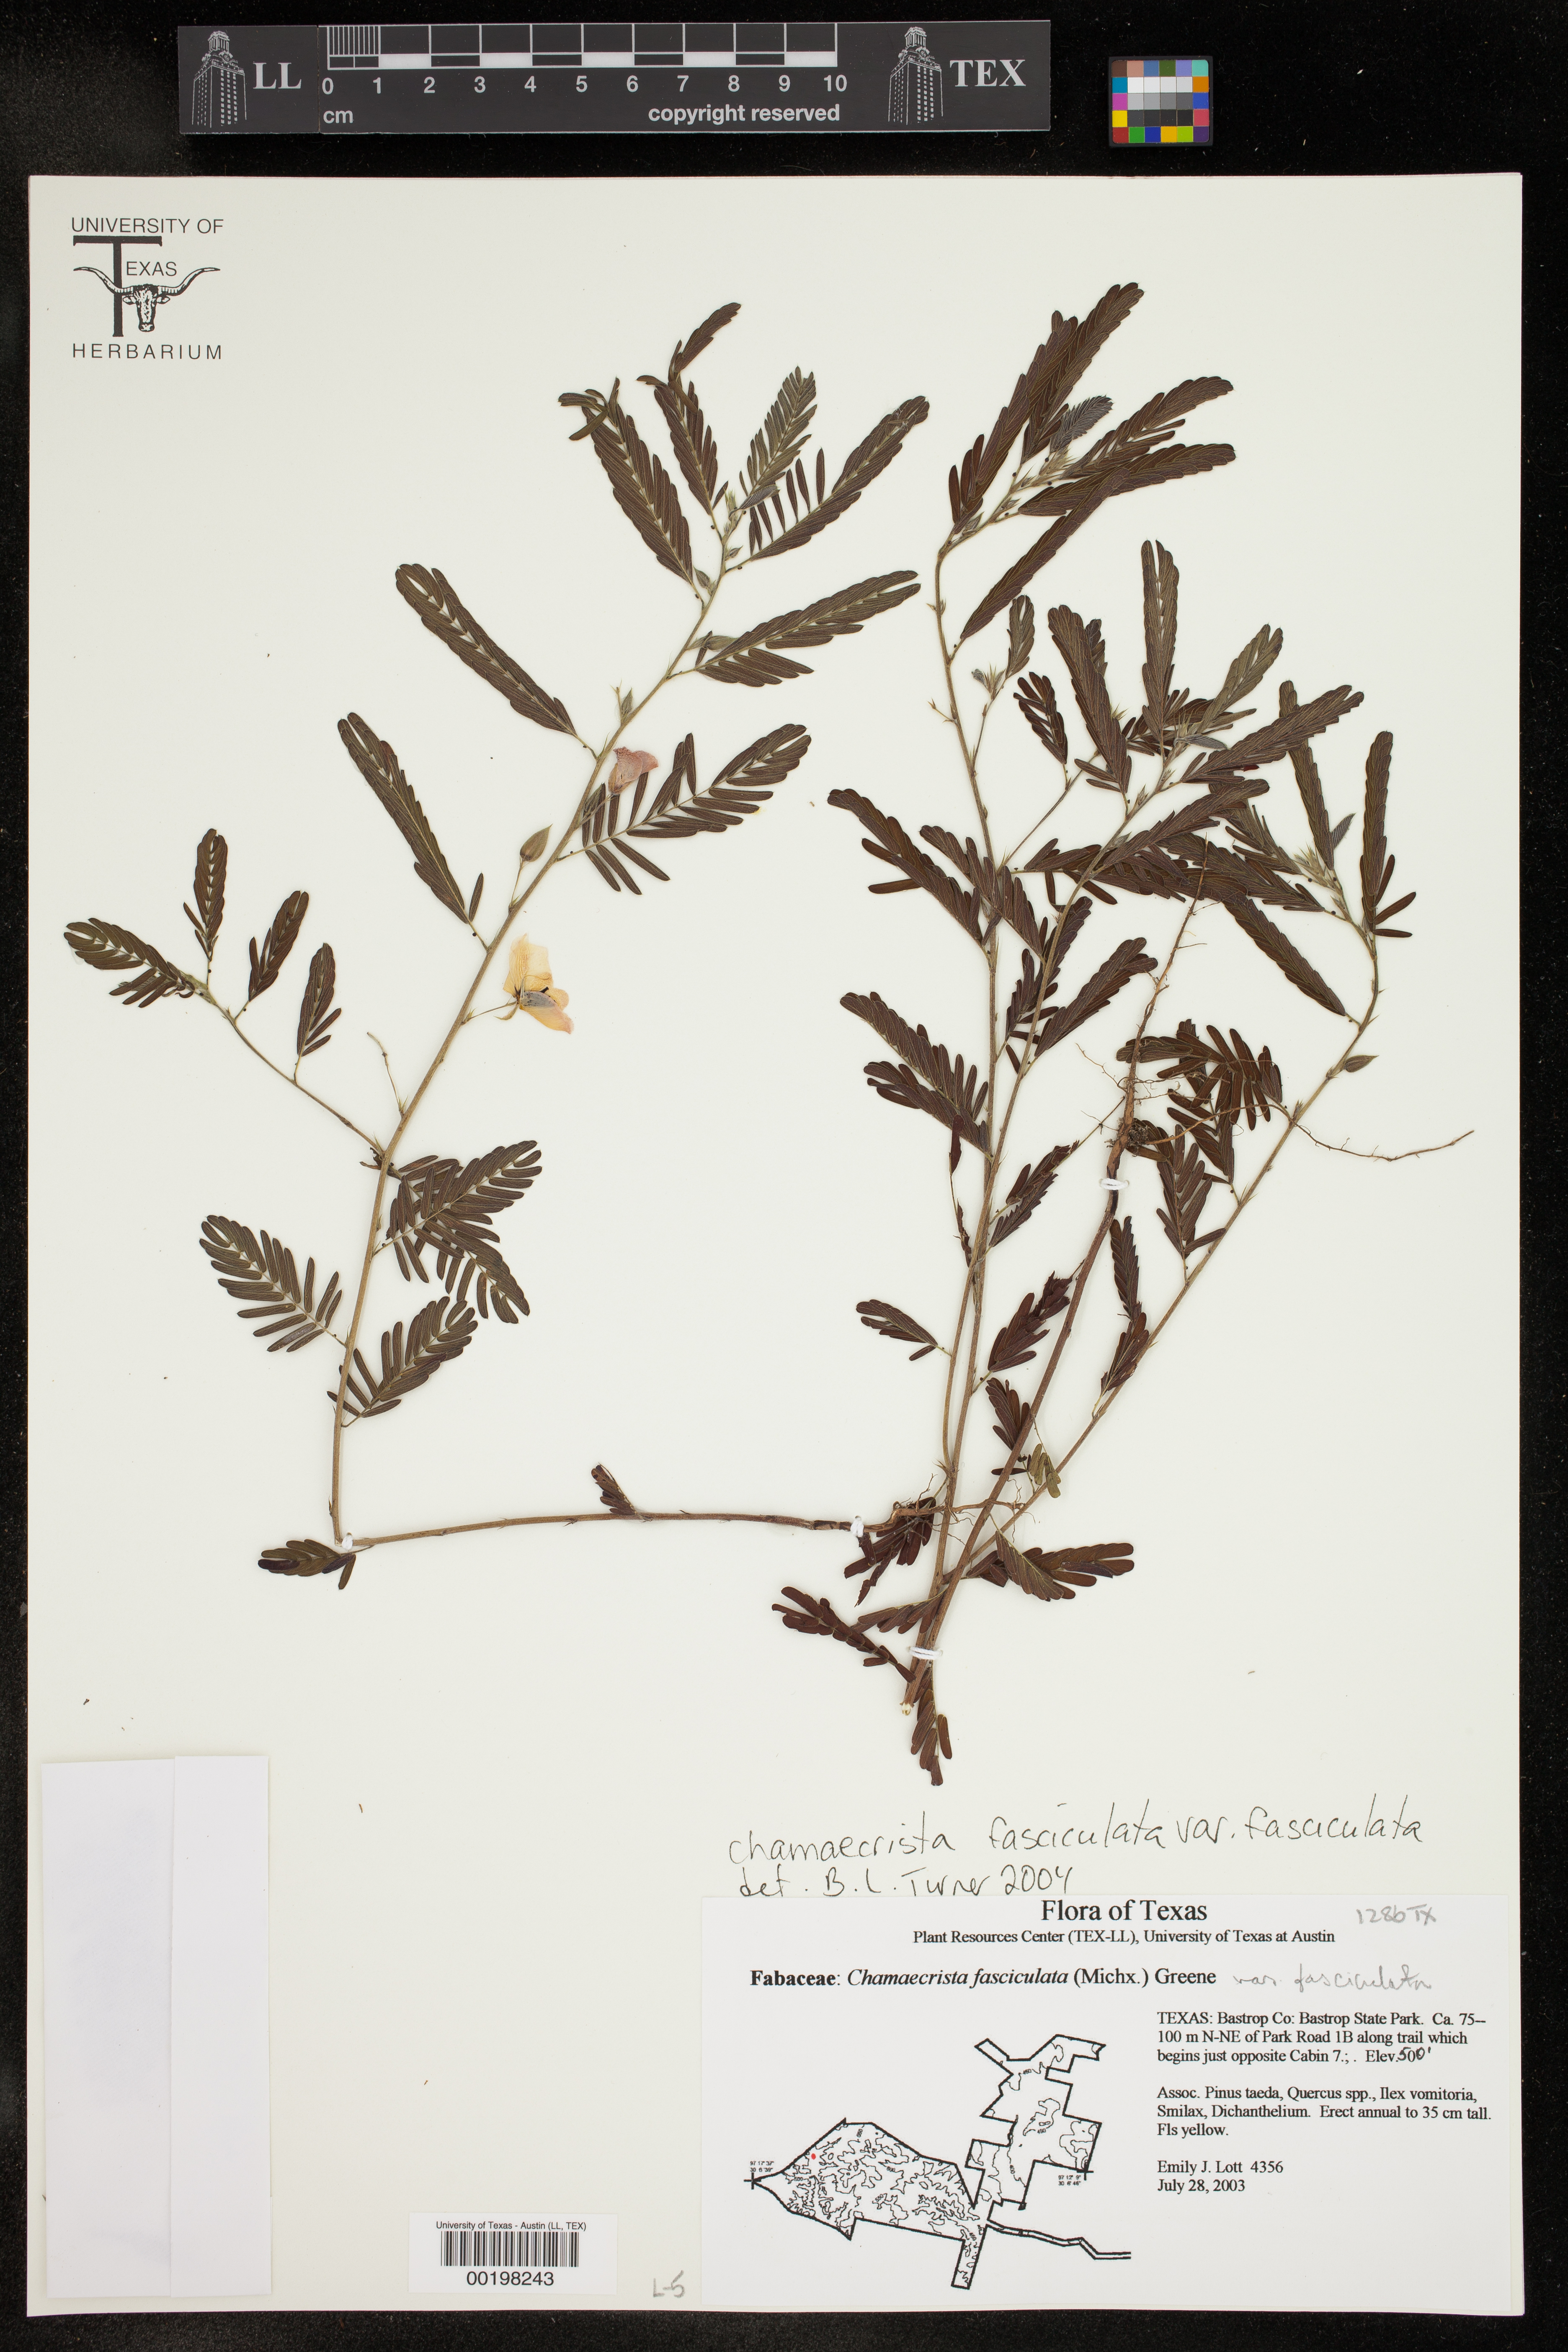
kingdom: Plantae
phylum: Tracheophyta
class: Magnoliopsida
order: Fabales
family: Fabaceae
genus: Chamaecrista
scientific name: Chamaecrista fasciculata
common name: Golden cassia
